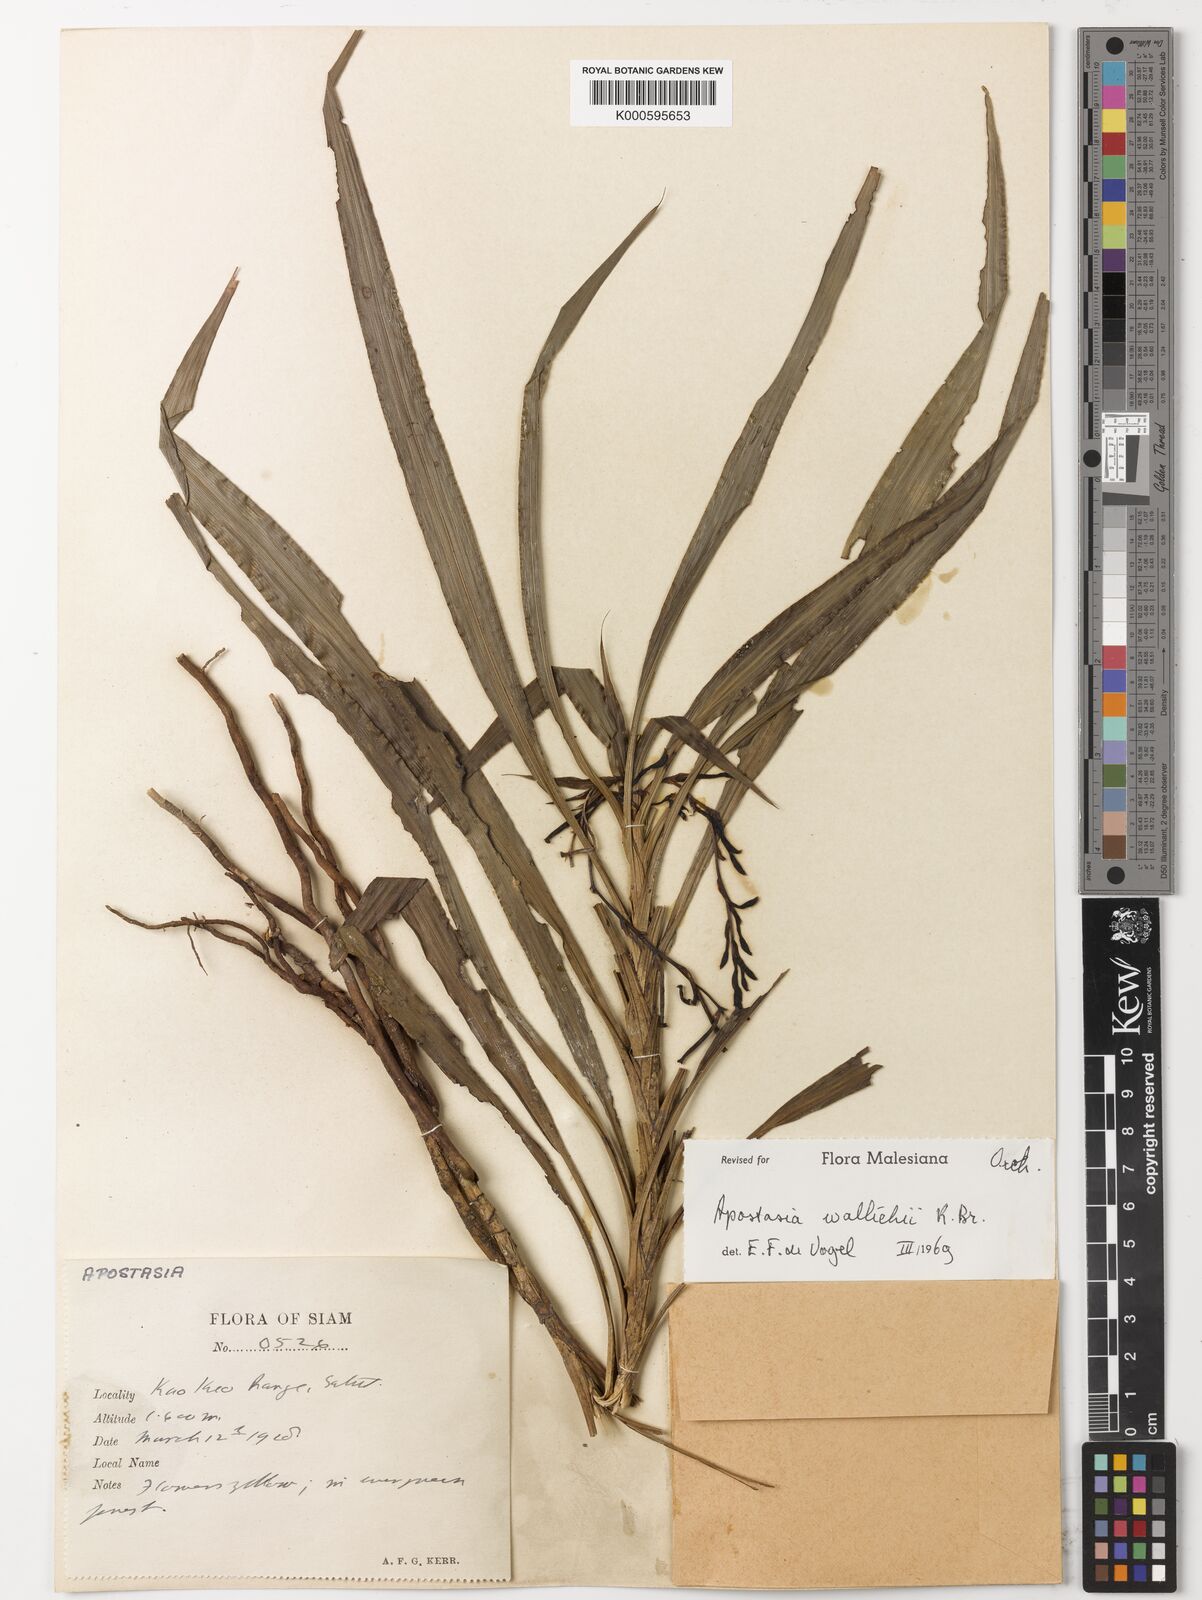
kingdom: Plantae
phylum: Tracheophyta
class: Liliopsida
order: Asparagales
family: Orchidaceae
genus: Apostasia
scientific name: Apostasia wallichii
